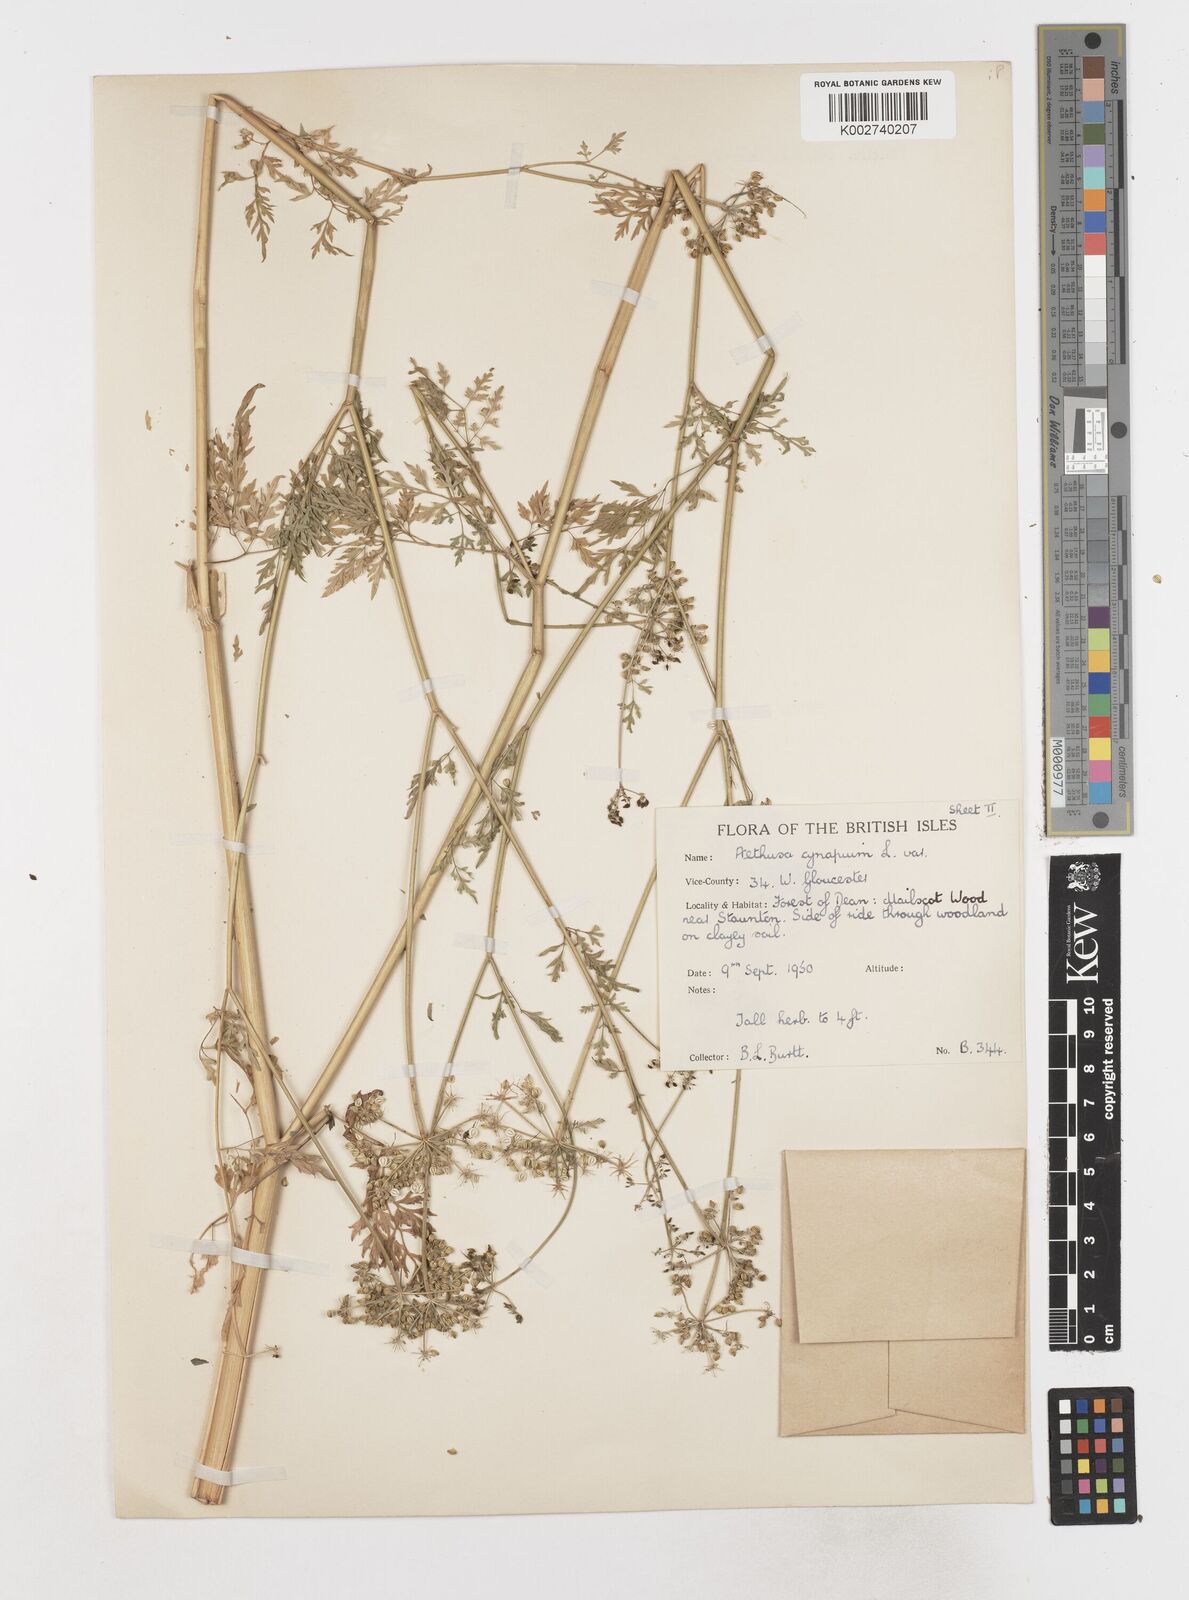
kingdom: Plantae
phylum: Tracheophyta
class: Magnoliopsida
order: Apiales
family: Apiaceae
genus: Aethusa
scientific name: Aethusa cynapium
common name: Fool's parsley
